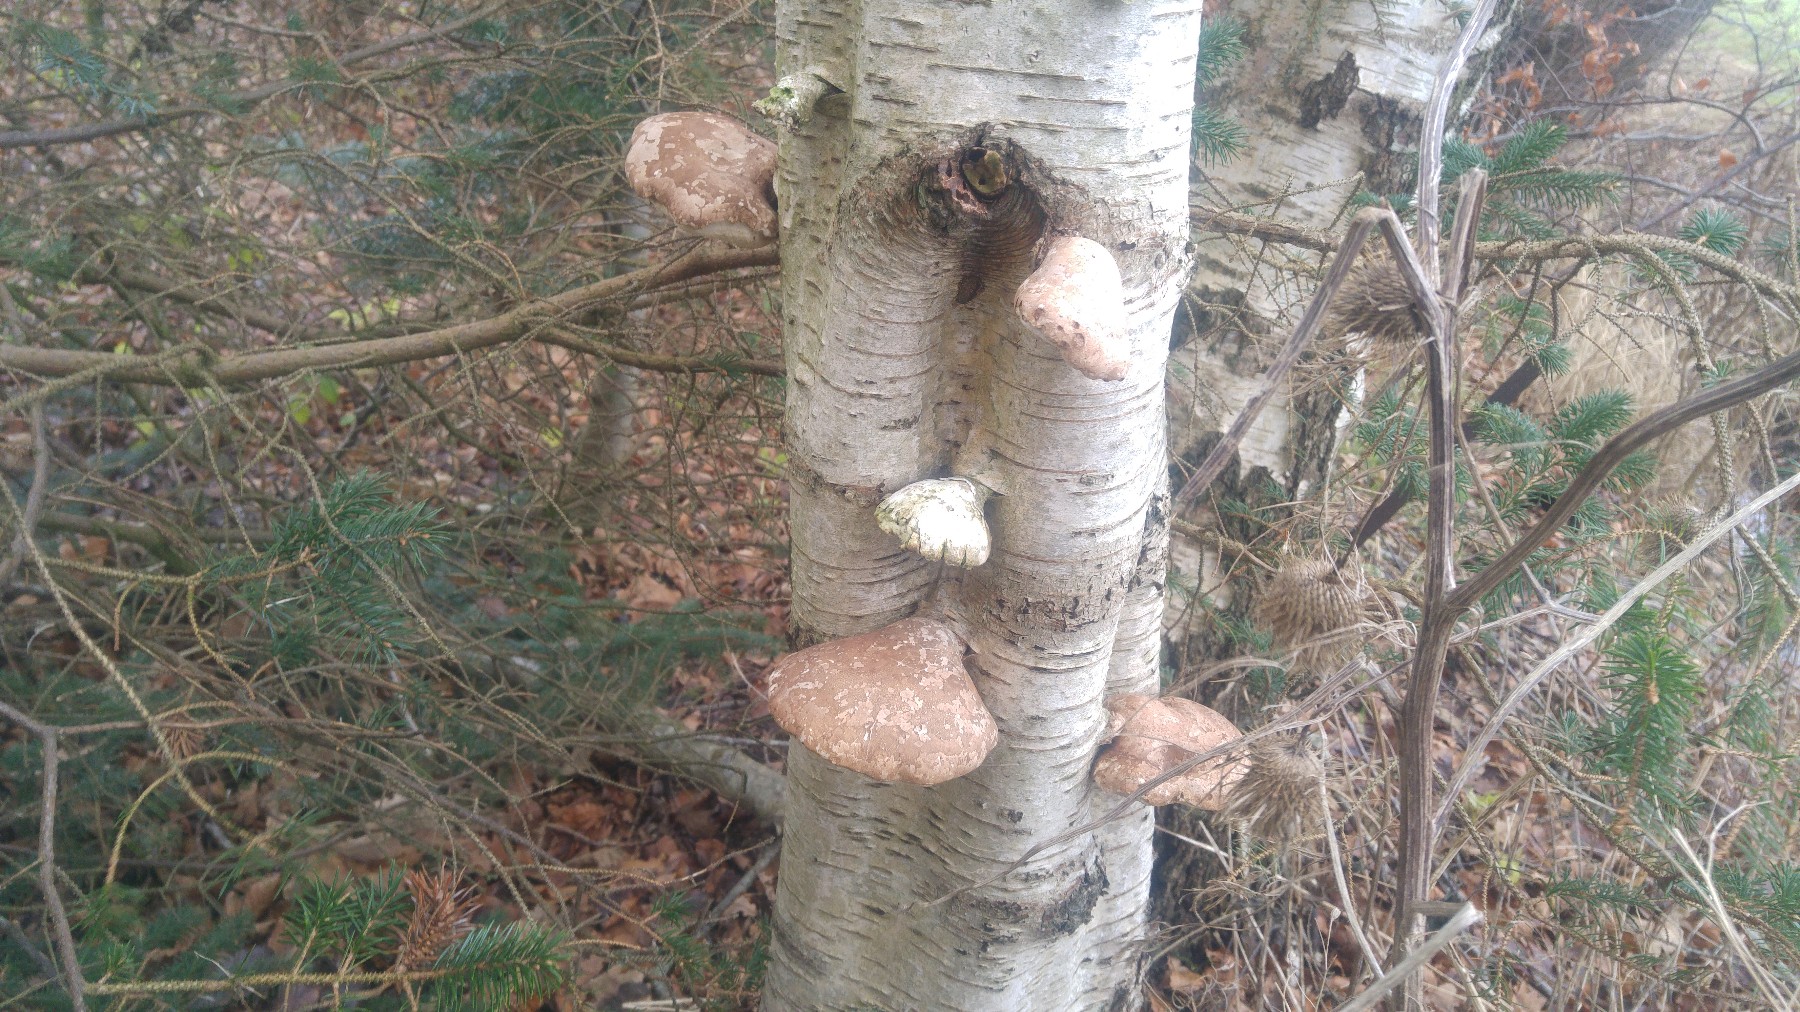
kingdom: Fungi
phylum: Basidiomycota
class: Agaricomycetes
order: Polyporales
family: Fomitopsidaceae
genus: Fomitopsis
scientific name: Fomitopsis betulina
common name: birkeporesvamp
